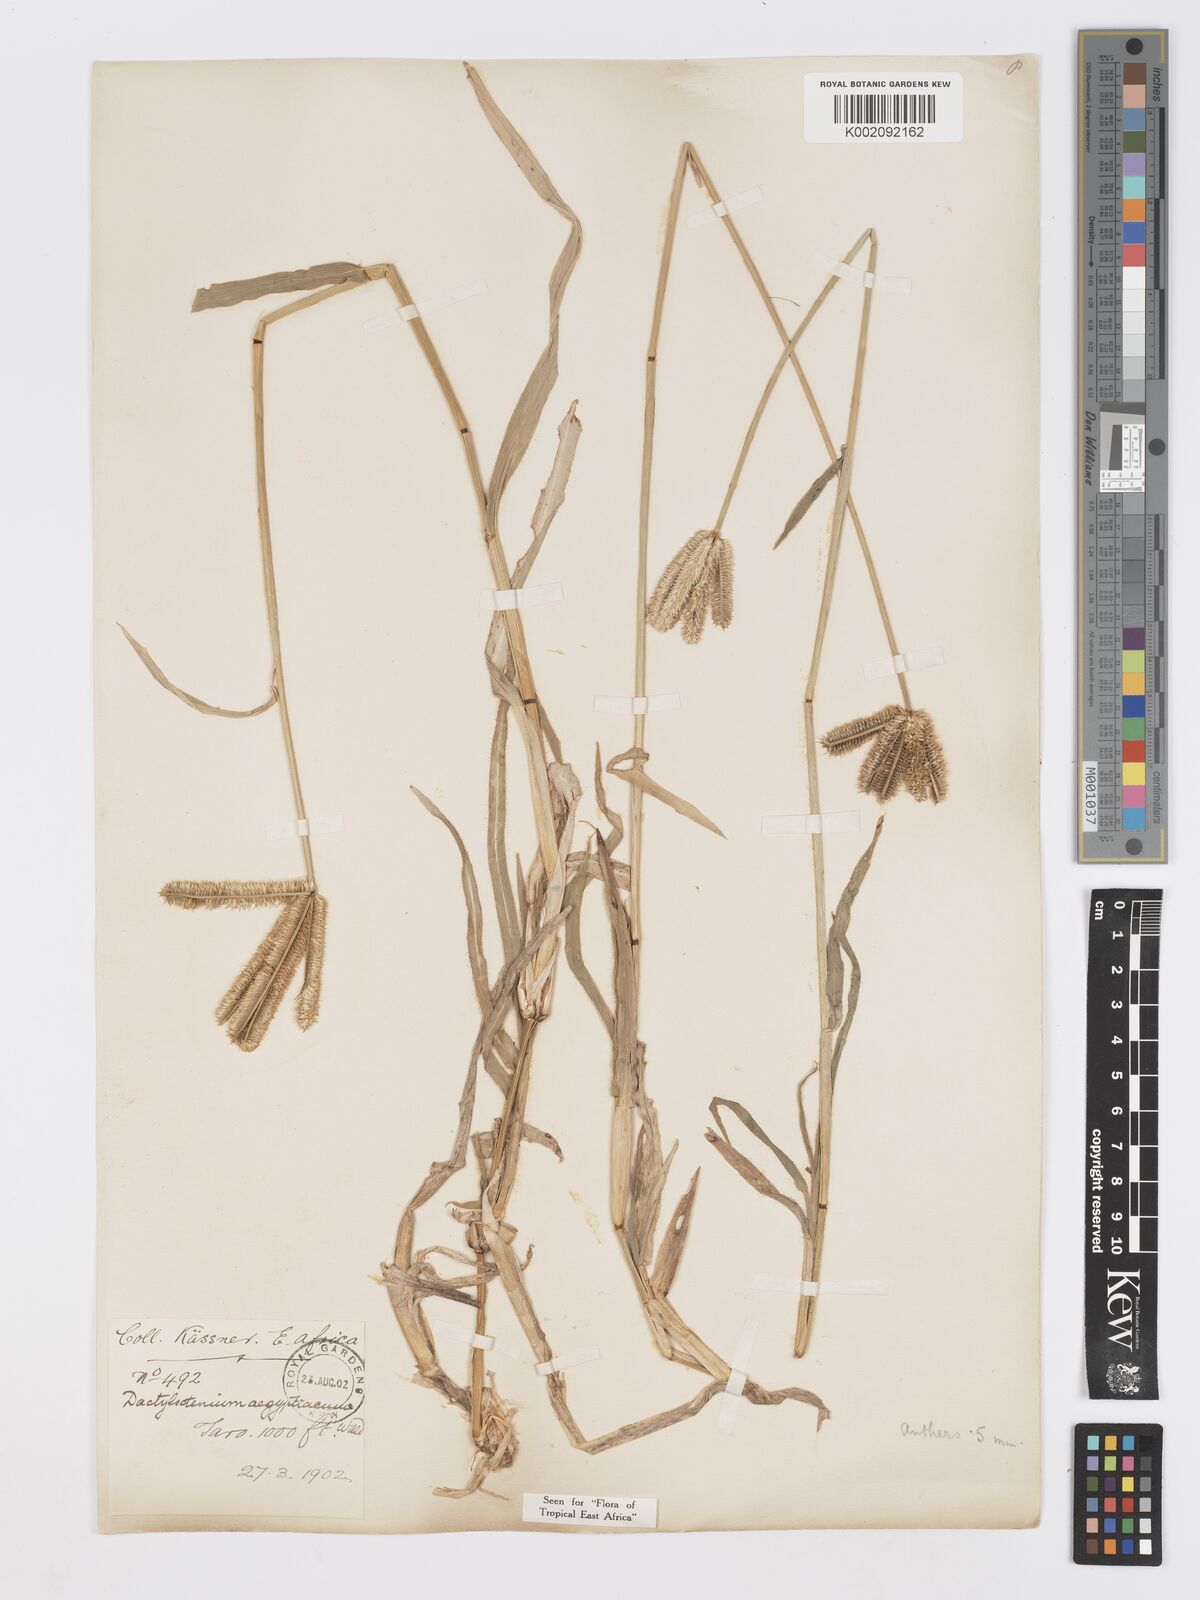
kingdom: Plantae
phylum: Tracheophyta
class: Liliopsida
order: Poales
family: Poaceae
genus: Dactyloctenium
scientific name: Dactyloctenium aegyptium
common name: Egyptian grass
